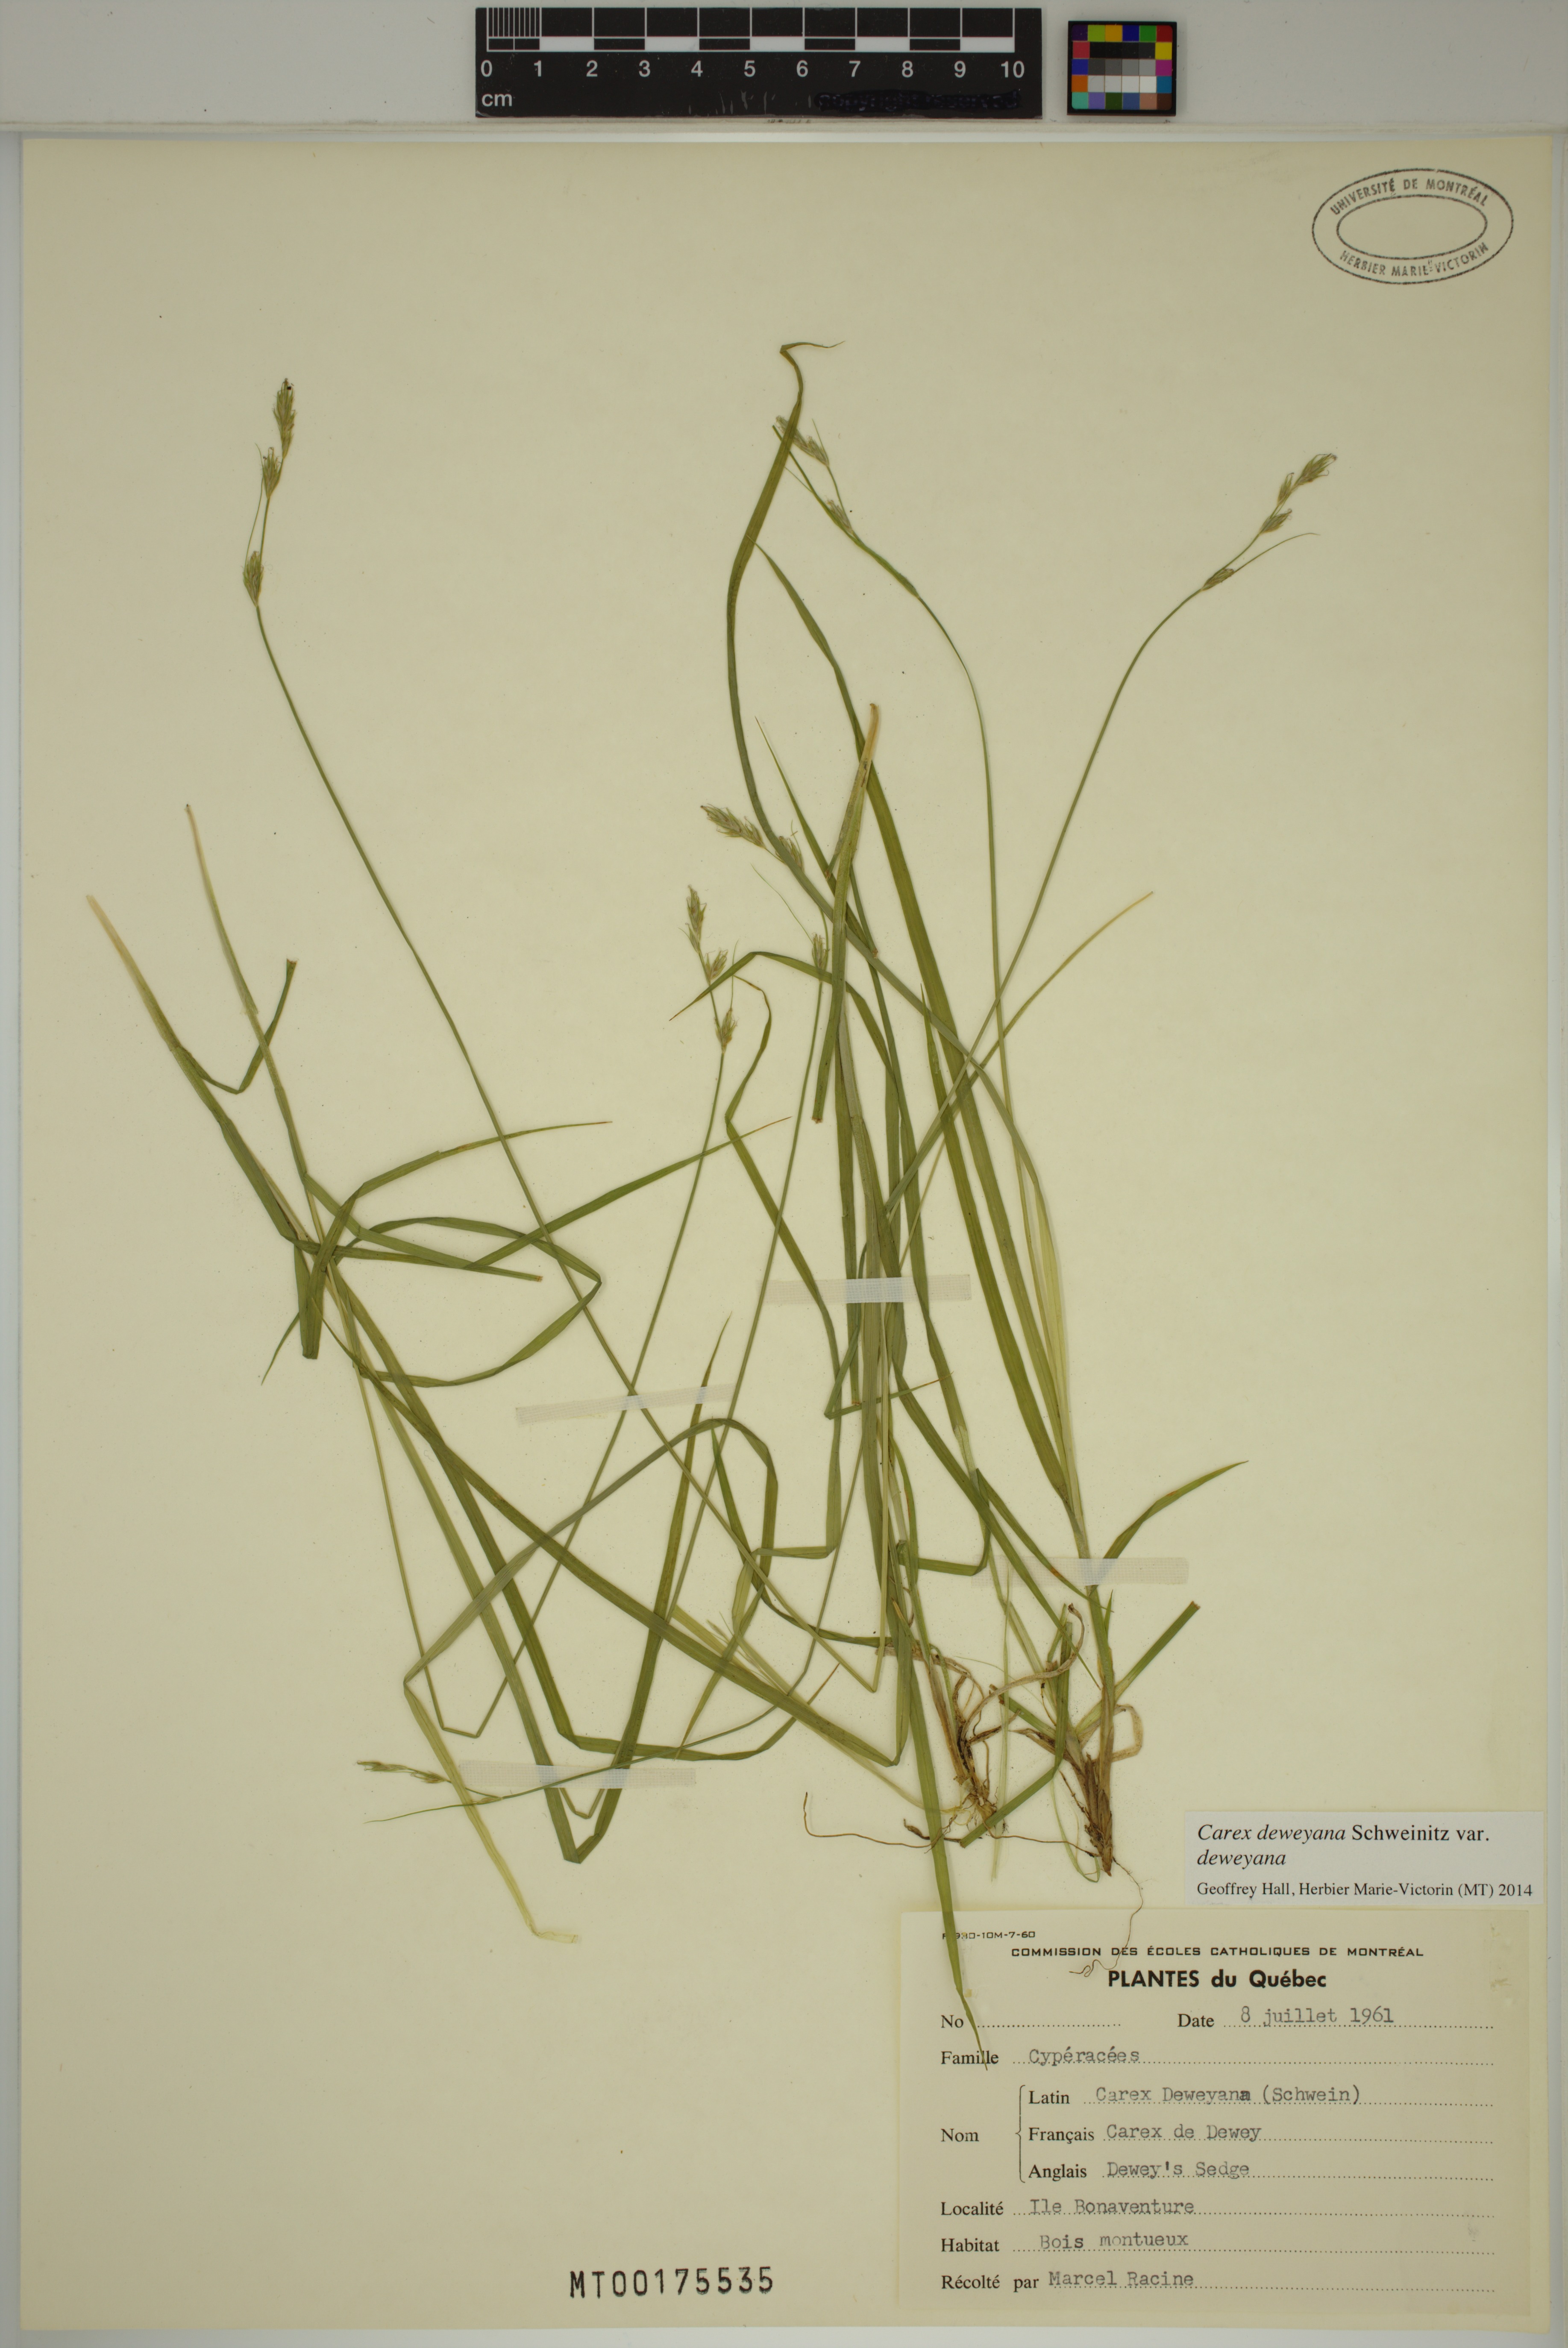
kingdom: Plantae
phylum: Tracheophyta
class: Liliopsida
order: Poales
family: Cyperaceae
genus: Carex
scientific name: Carex deweyana
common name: Dewey's sedge
